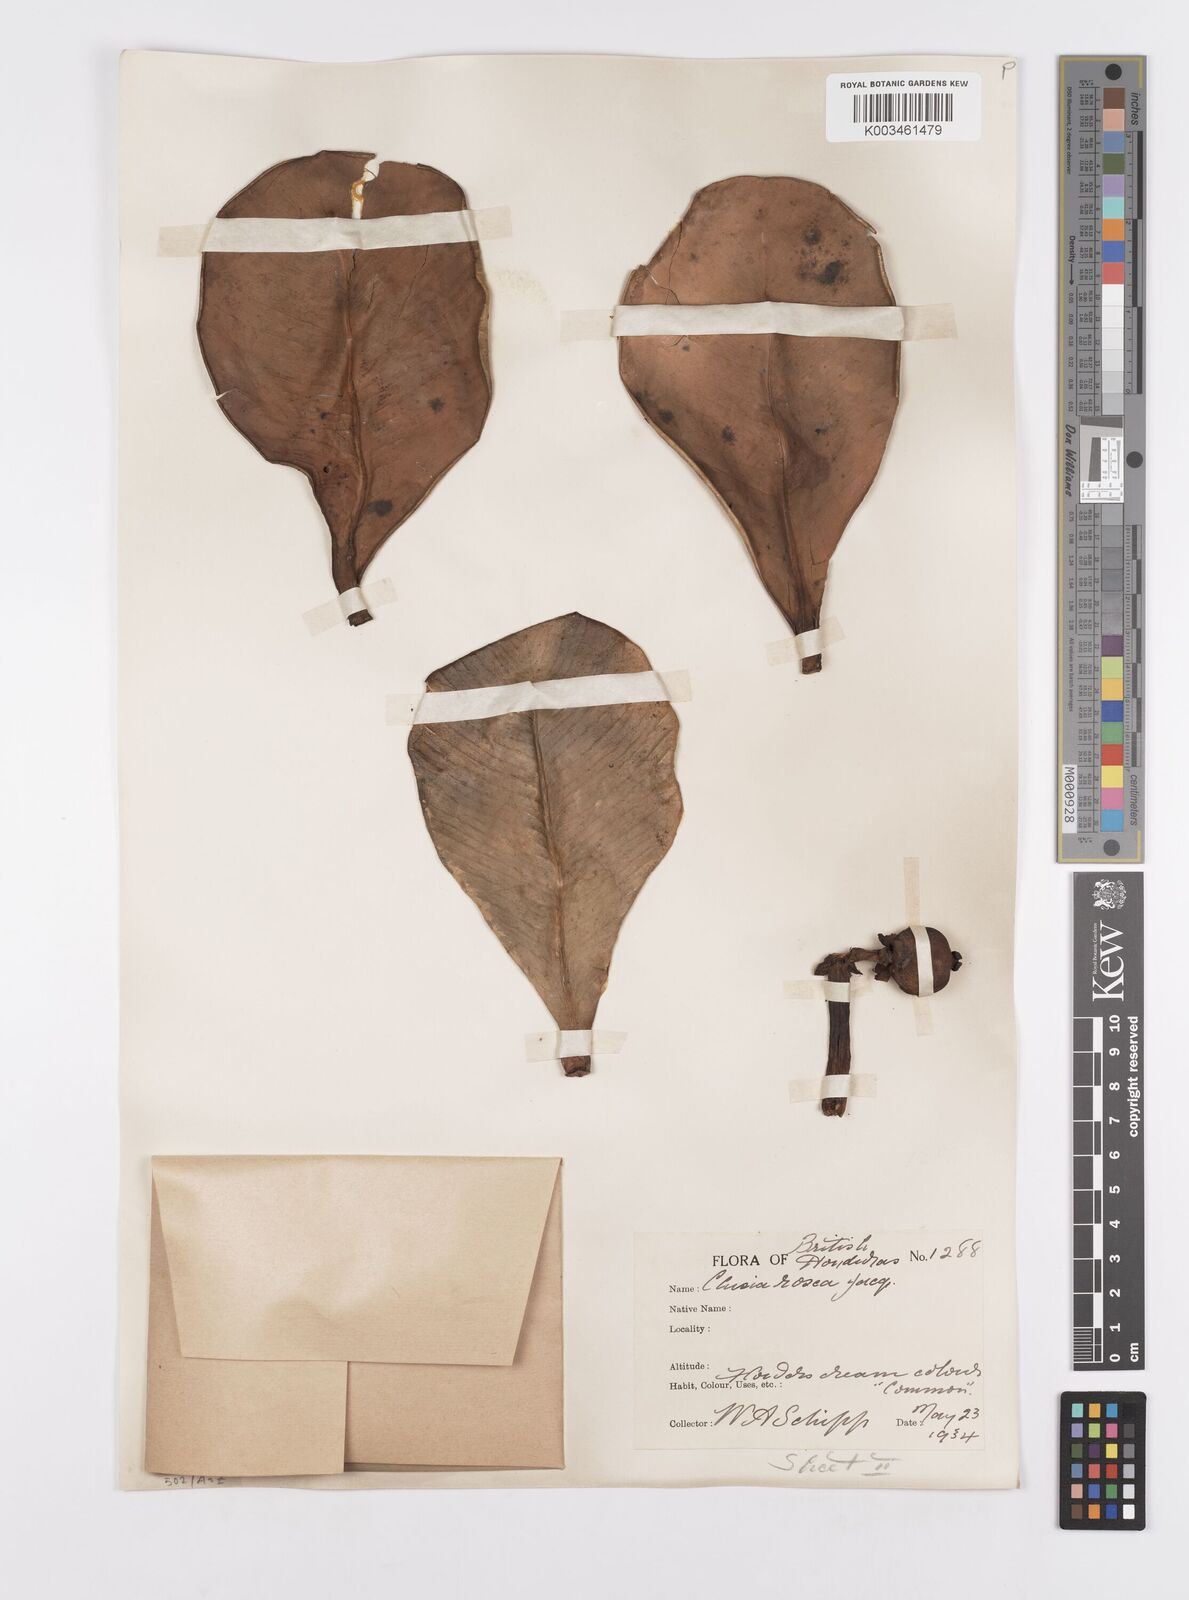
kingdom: Plantae
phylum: Tracheophyta
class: Magnoliopsida
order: Malpighiales
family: Clusiaceae
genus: Clusia
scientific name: Clusia rosea
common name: Scotch attorney
